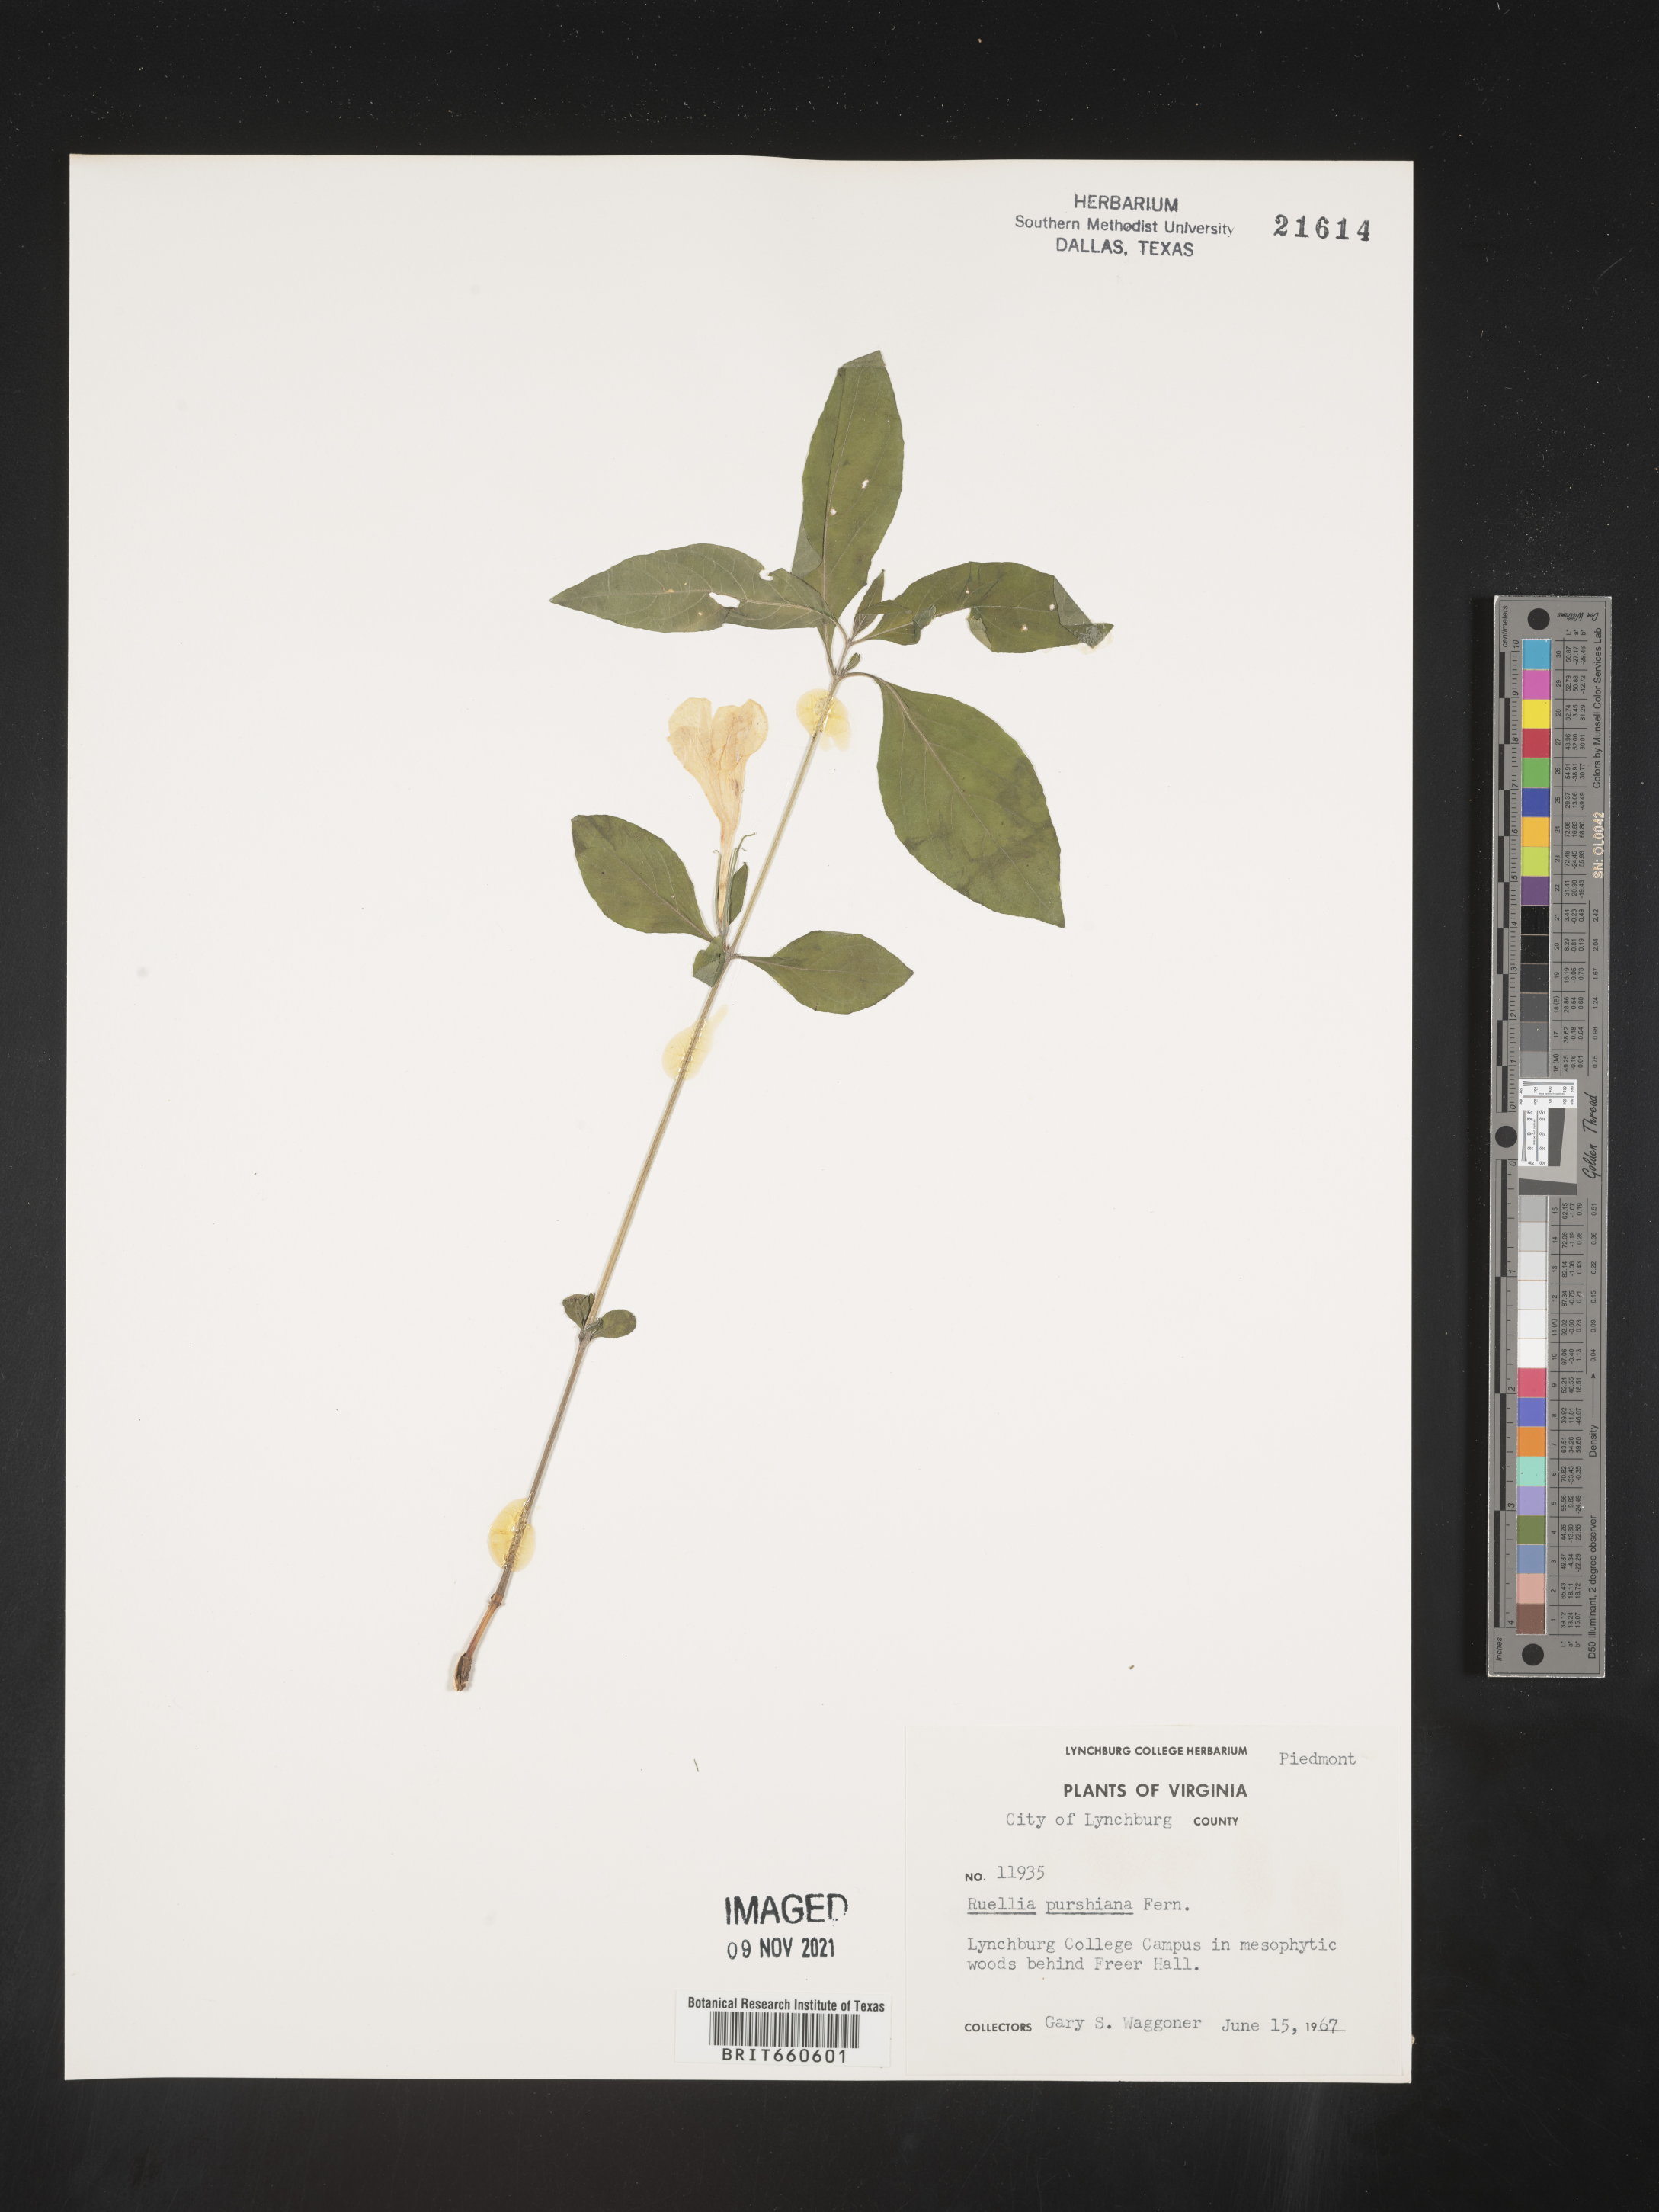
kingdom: Plantae
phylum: Tracheophyta
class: Magnoliopsida
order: Lamiales
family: Acanthaceae
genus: Ruellia
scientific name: Ruellia purshiana
